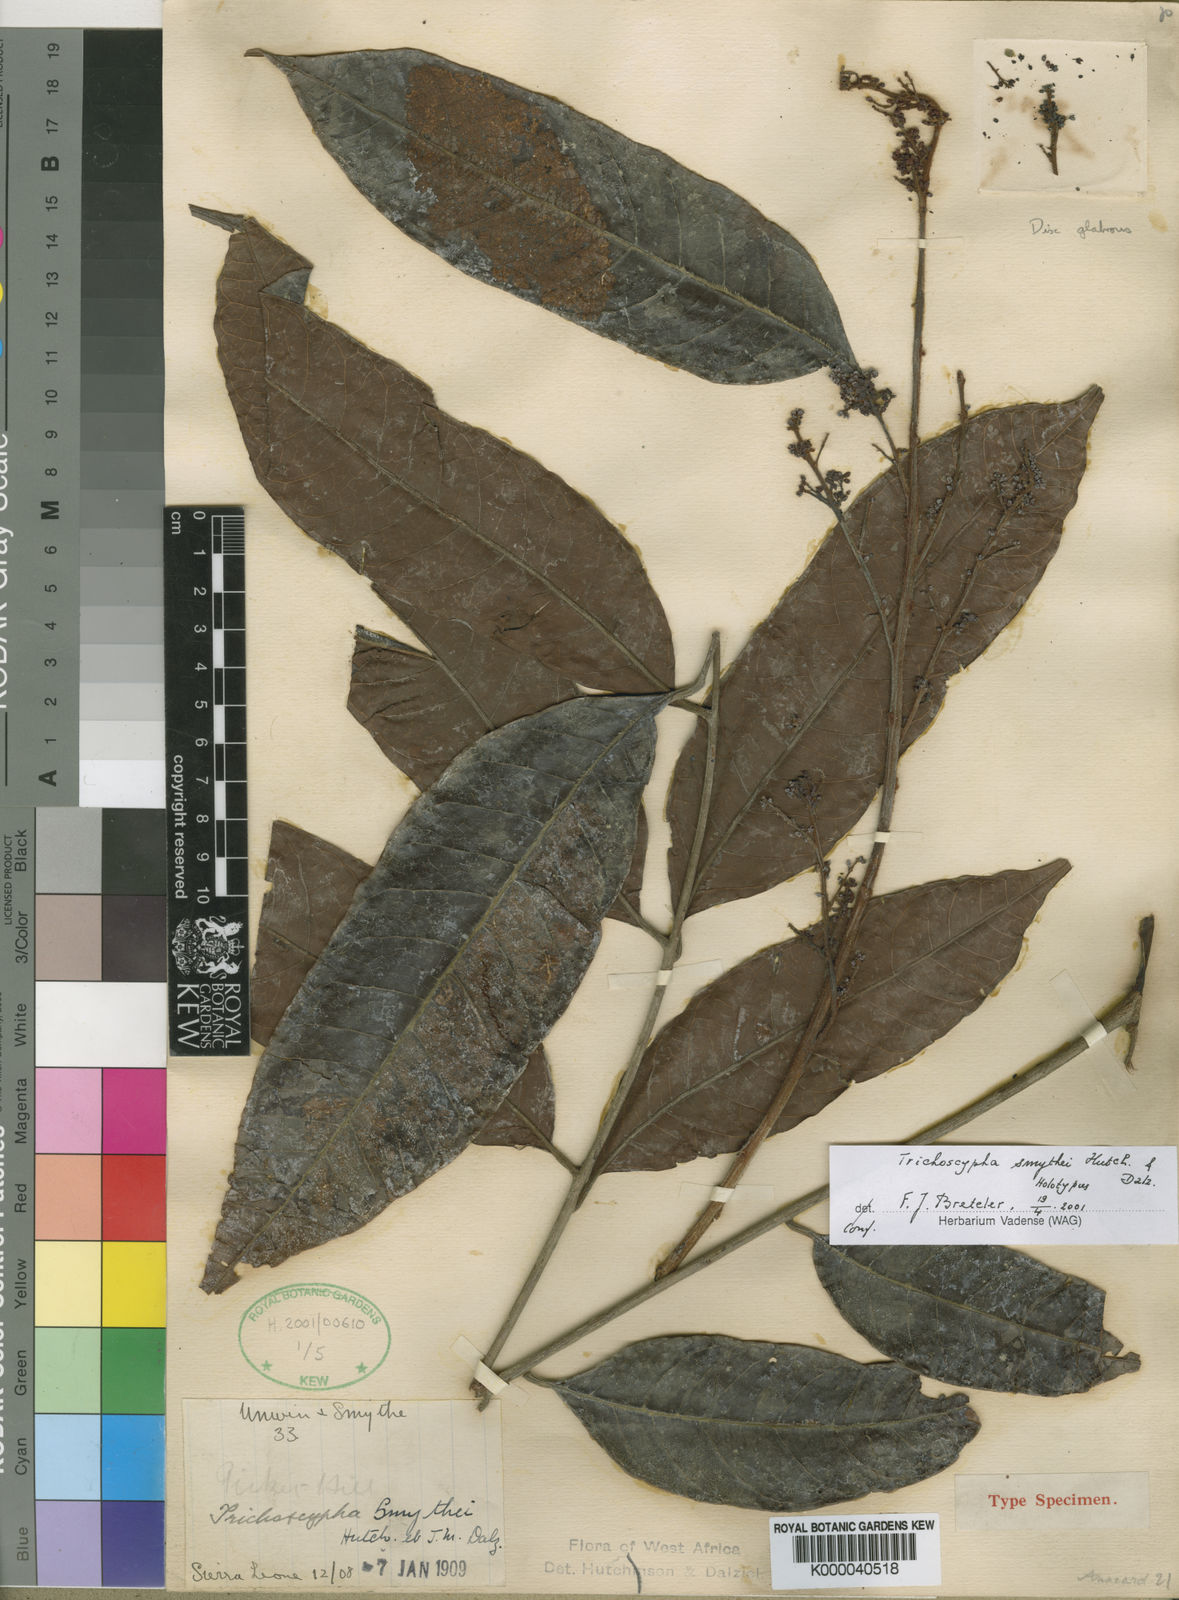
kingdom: Plantae
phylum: Tracheophyta
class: Magnoliopsida
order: Sapindales
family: Anacardiaceae
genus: Trichoscypha
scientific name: Trichoscypha smythei
